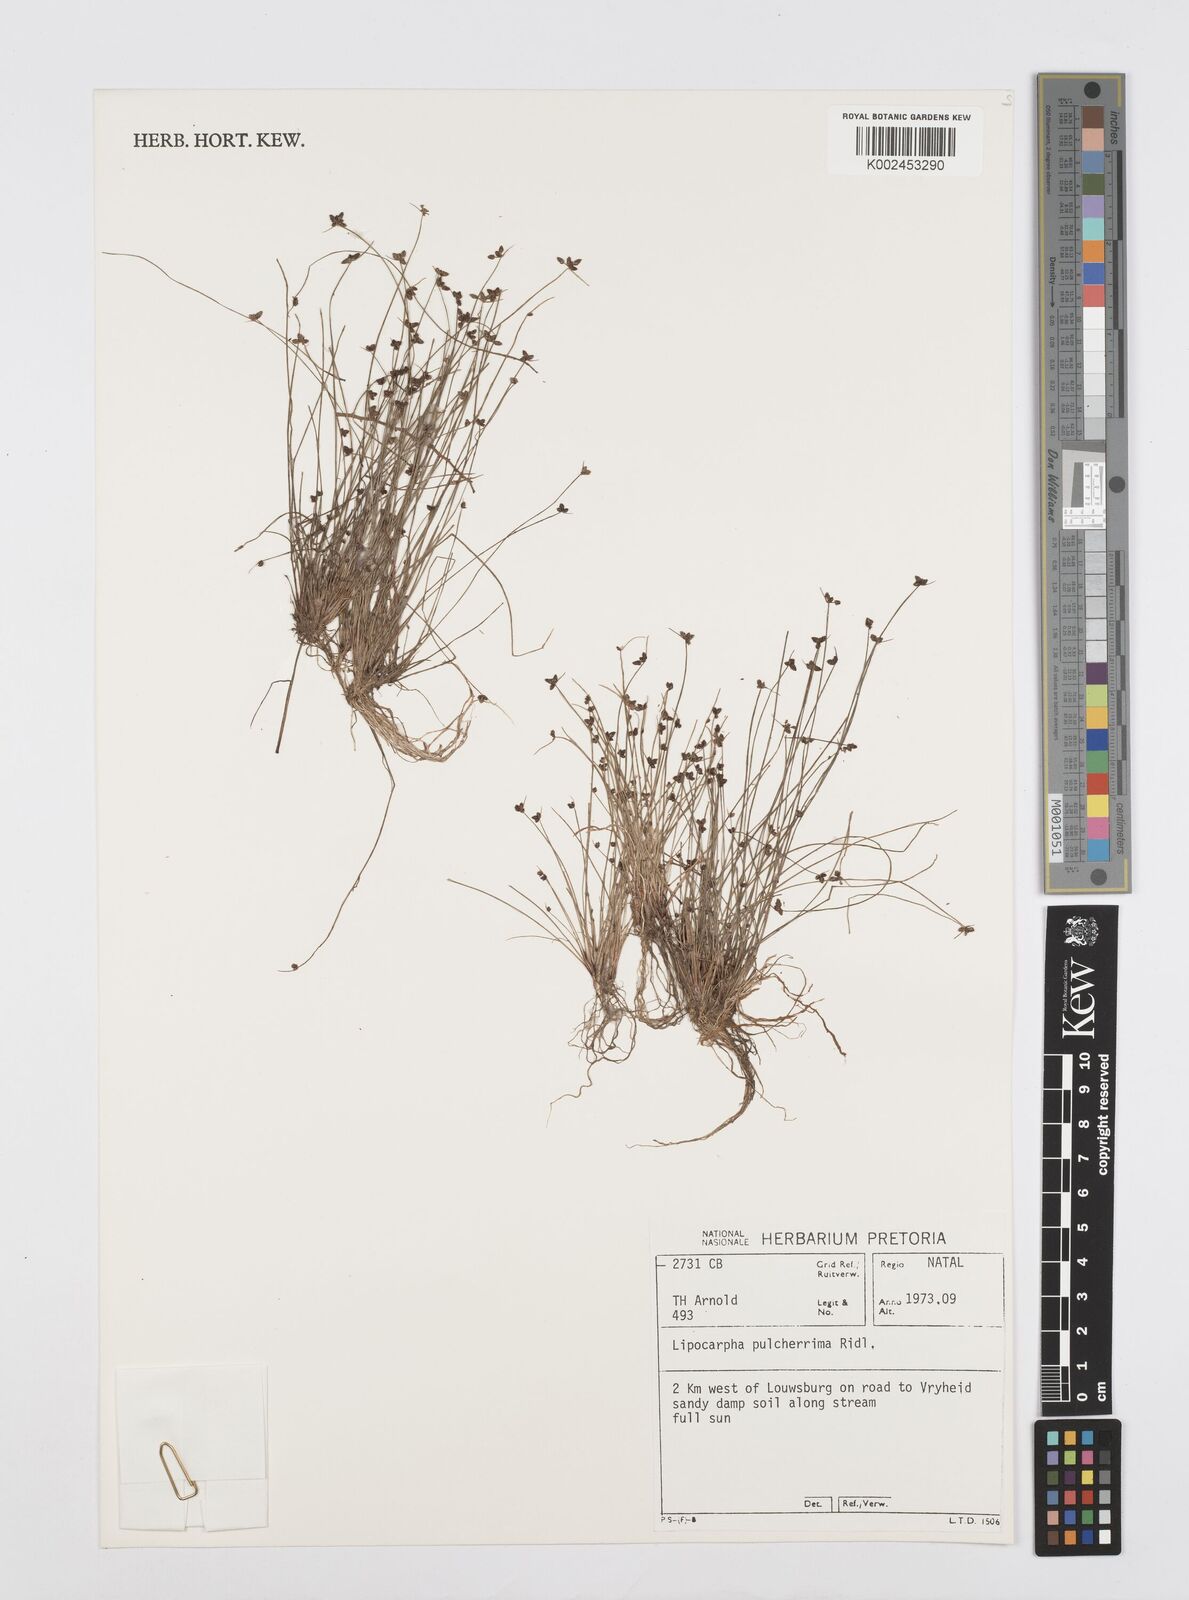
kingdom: Plantae
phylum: Tracheophyta
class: Liliopsida
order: Poales
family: Cyperaceae
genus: Cyperus
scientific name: Cyperus nanus
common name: Indian flatsedge
